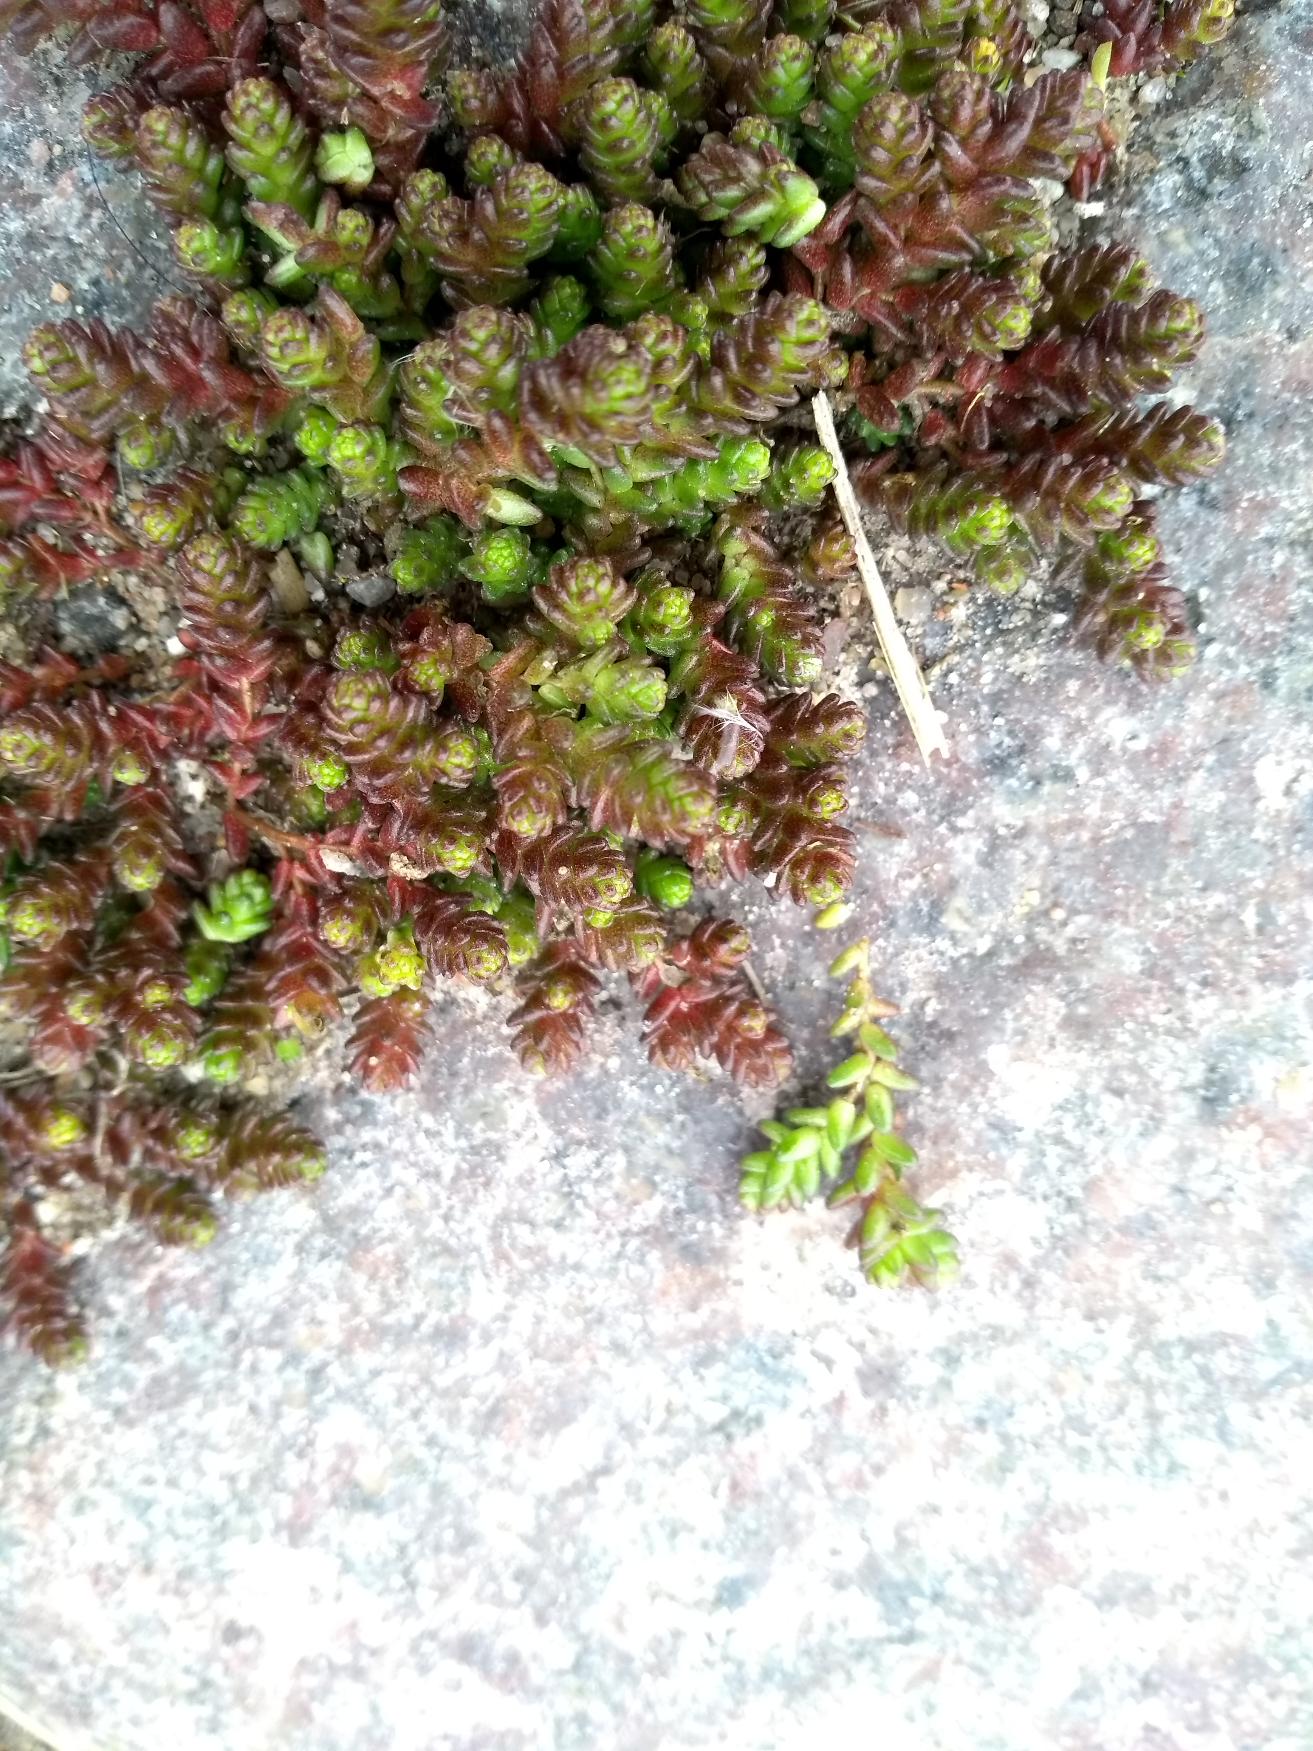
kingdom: Plantae
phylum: Tracheophyta
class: Magnoliopsida
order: Saxifragales
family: Crassulaceae
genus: Sedum
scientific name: Sedum acre
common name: Bidende stenurt
